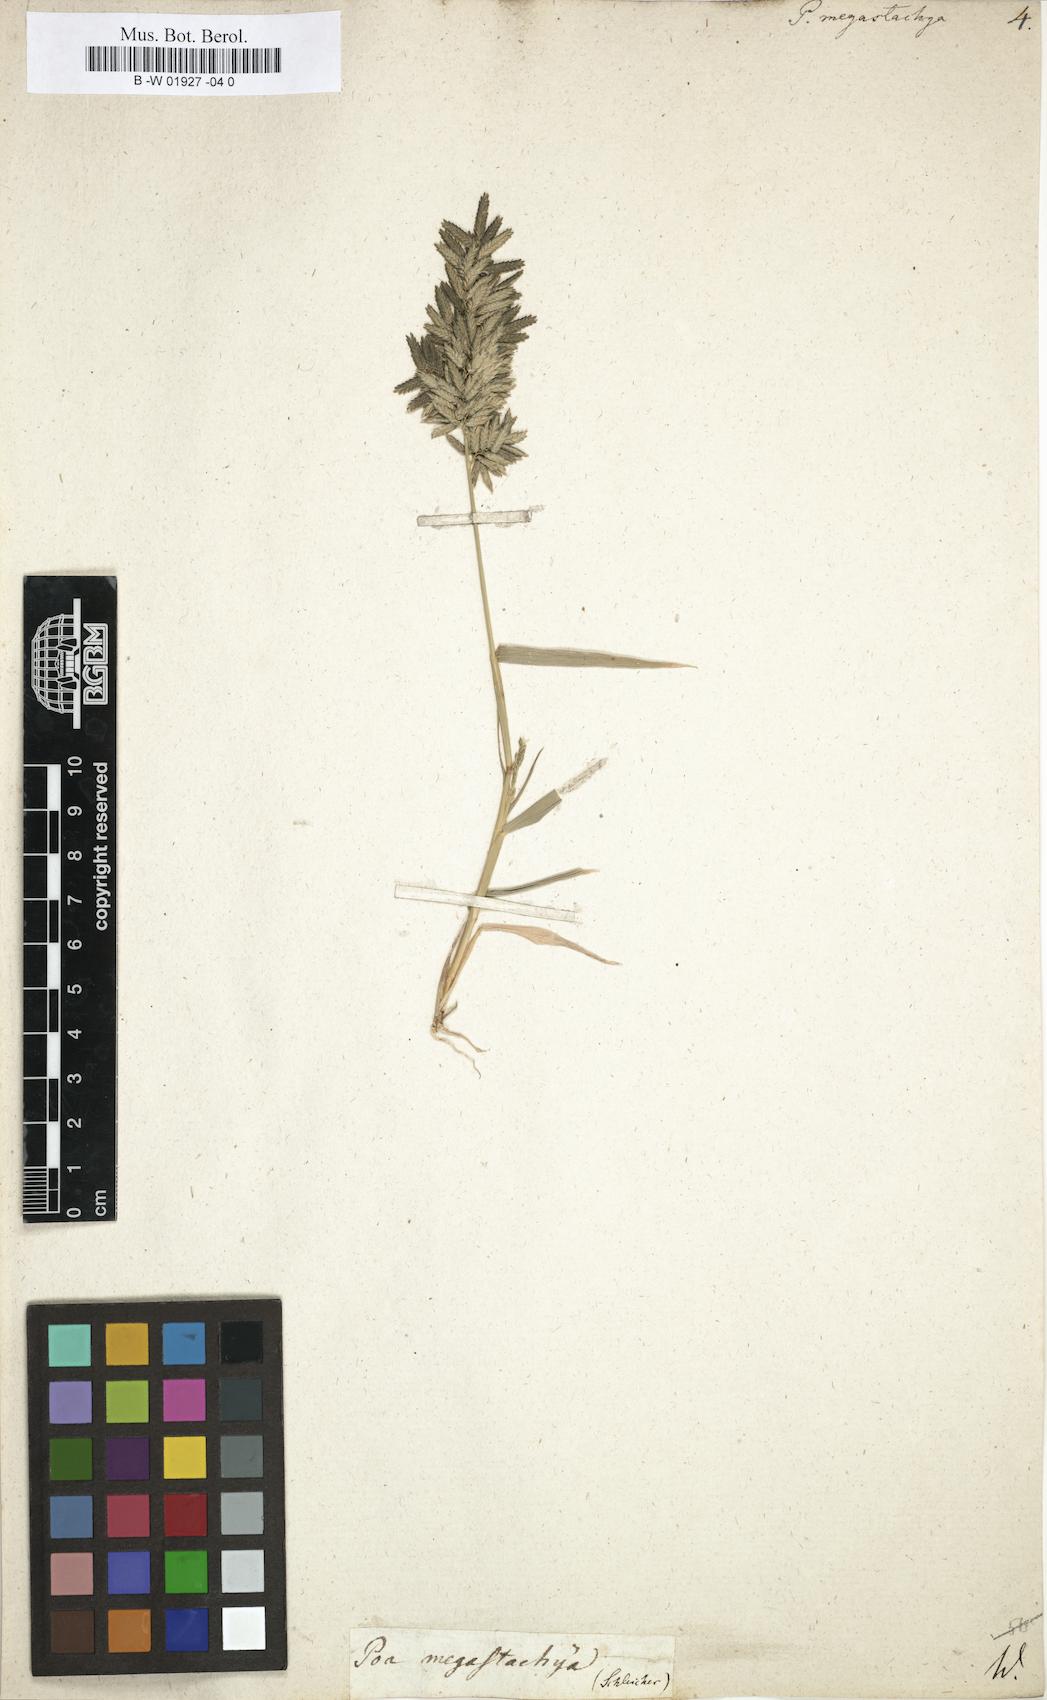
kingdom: Plantae
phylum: Tracheophyta
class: Liliopsida
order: Poales
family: Poaceae
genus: Eragrostis
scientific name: Eragrostis cilianensis
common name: Stinkgrass
